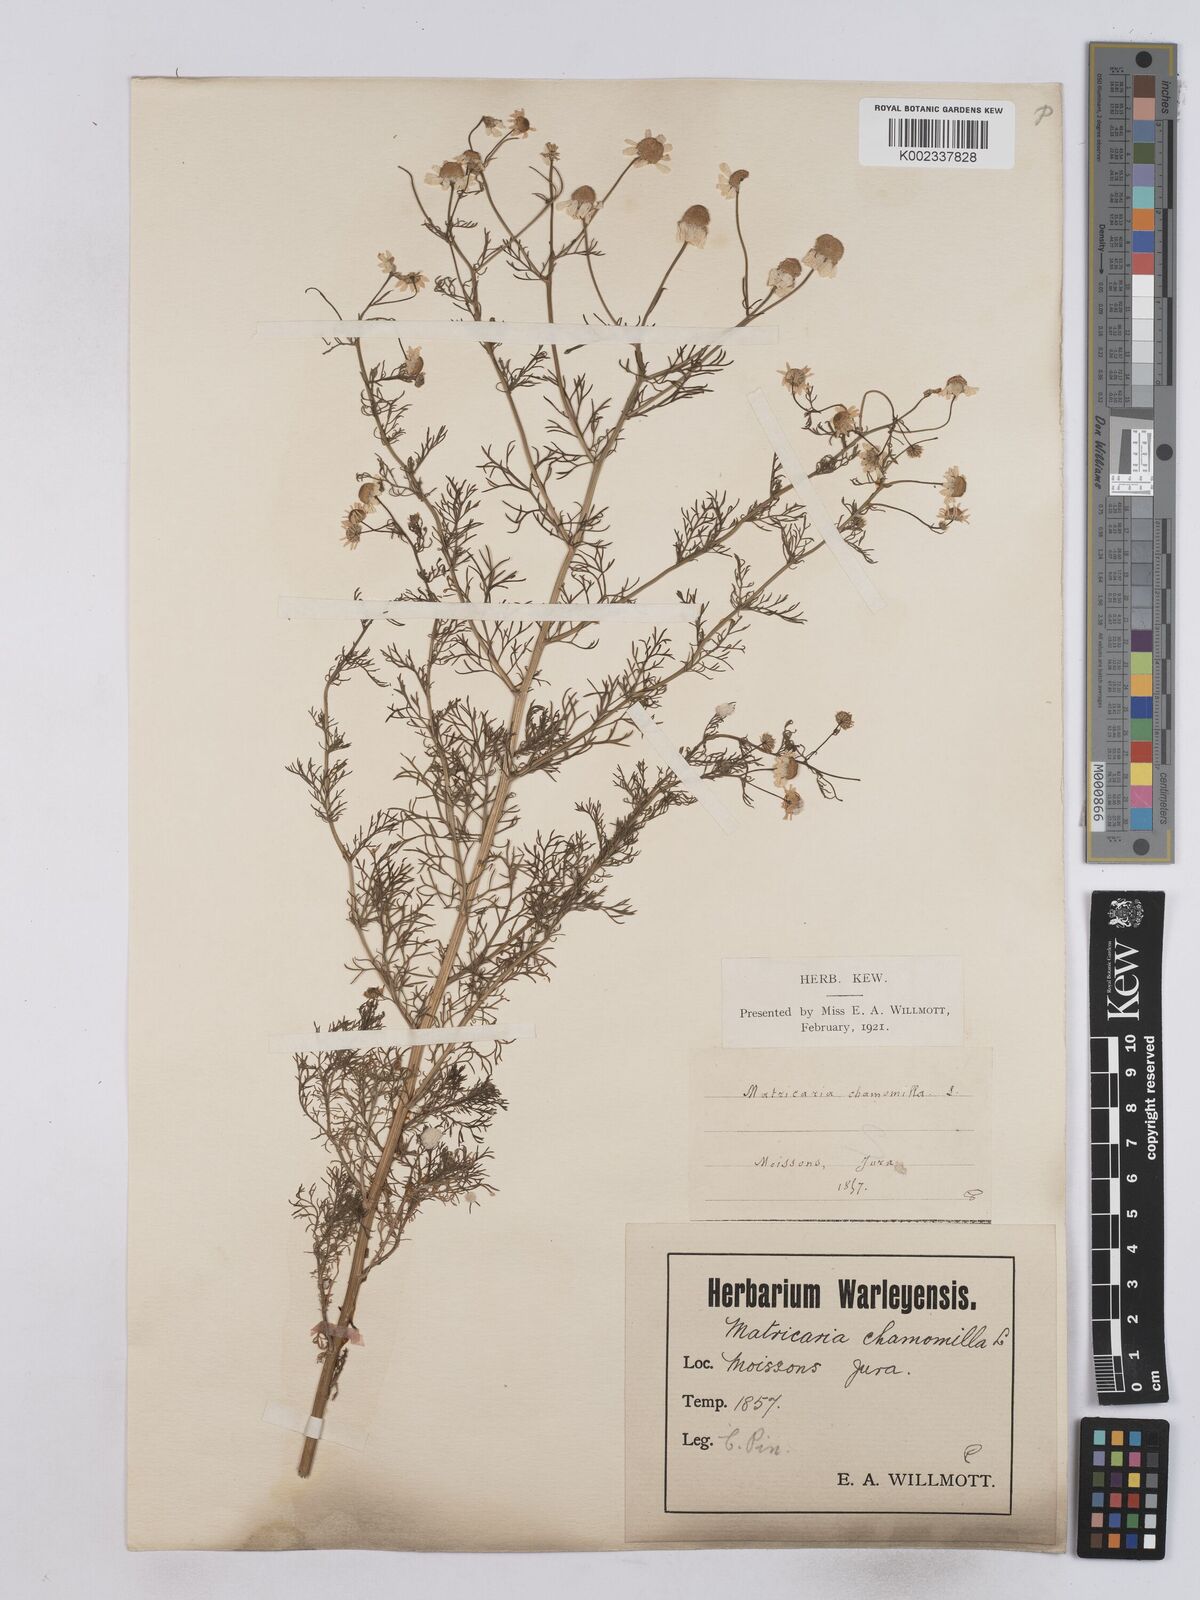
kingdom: Plantae
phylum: Tracheophyta
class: Magnoliopsida
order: Asterales
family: Asteraceae
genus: Matricaria
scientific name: Matricaria chamomilla
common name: Scented mayweed
